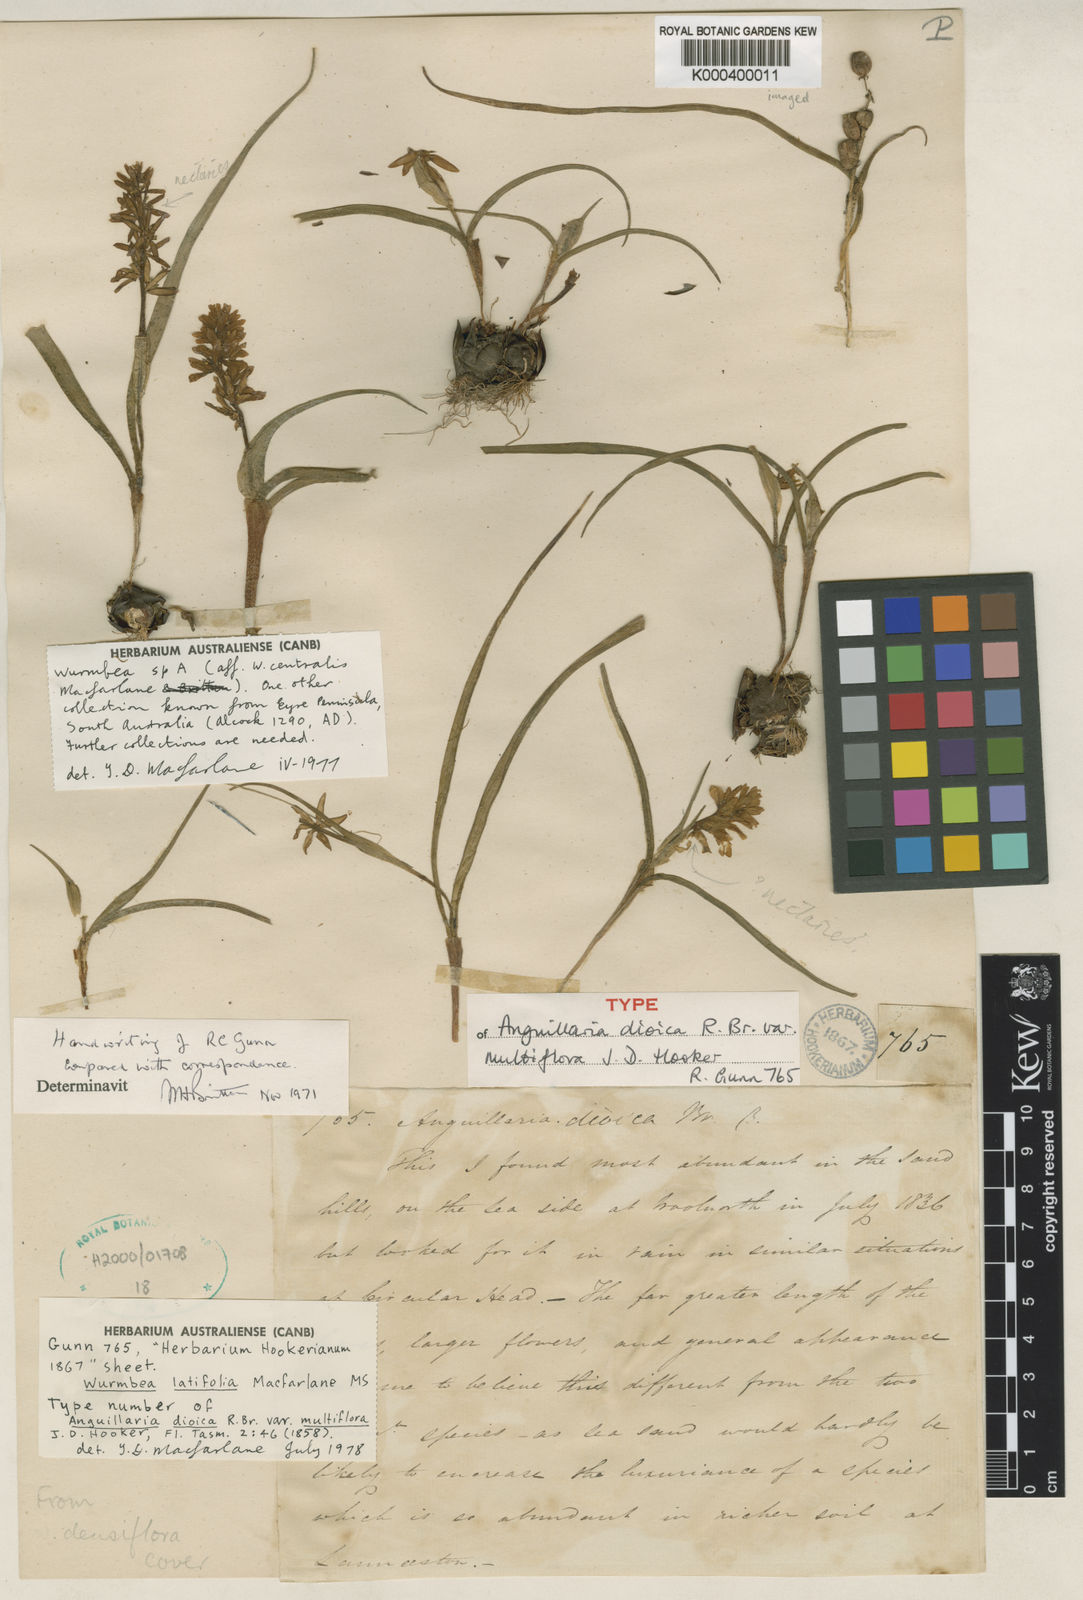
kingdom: Plantae
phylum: Tracheophyta
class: Liliopsida
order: Liliales
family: Colchicaceae
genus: Wurmbea
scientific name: Wurmbea latifolia
